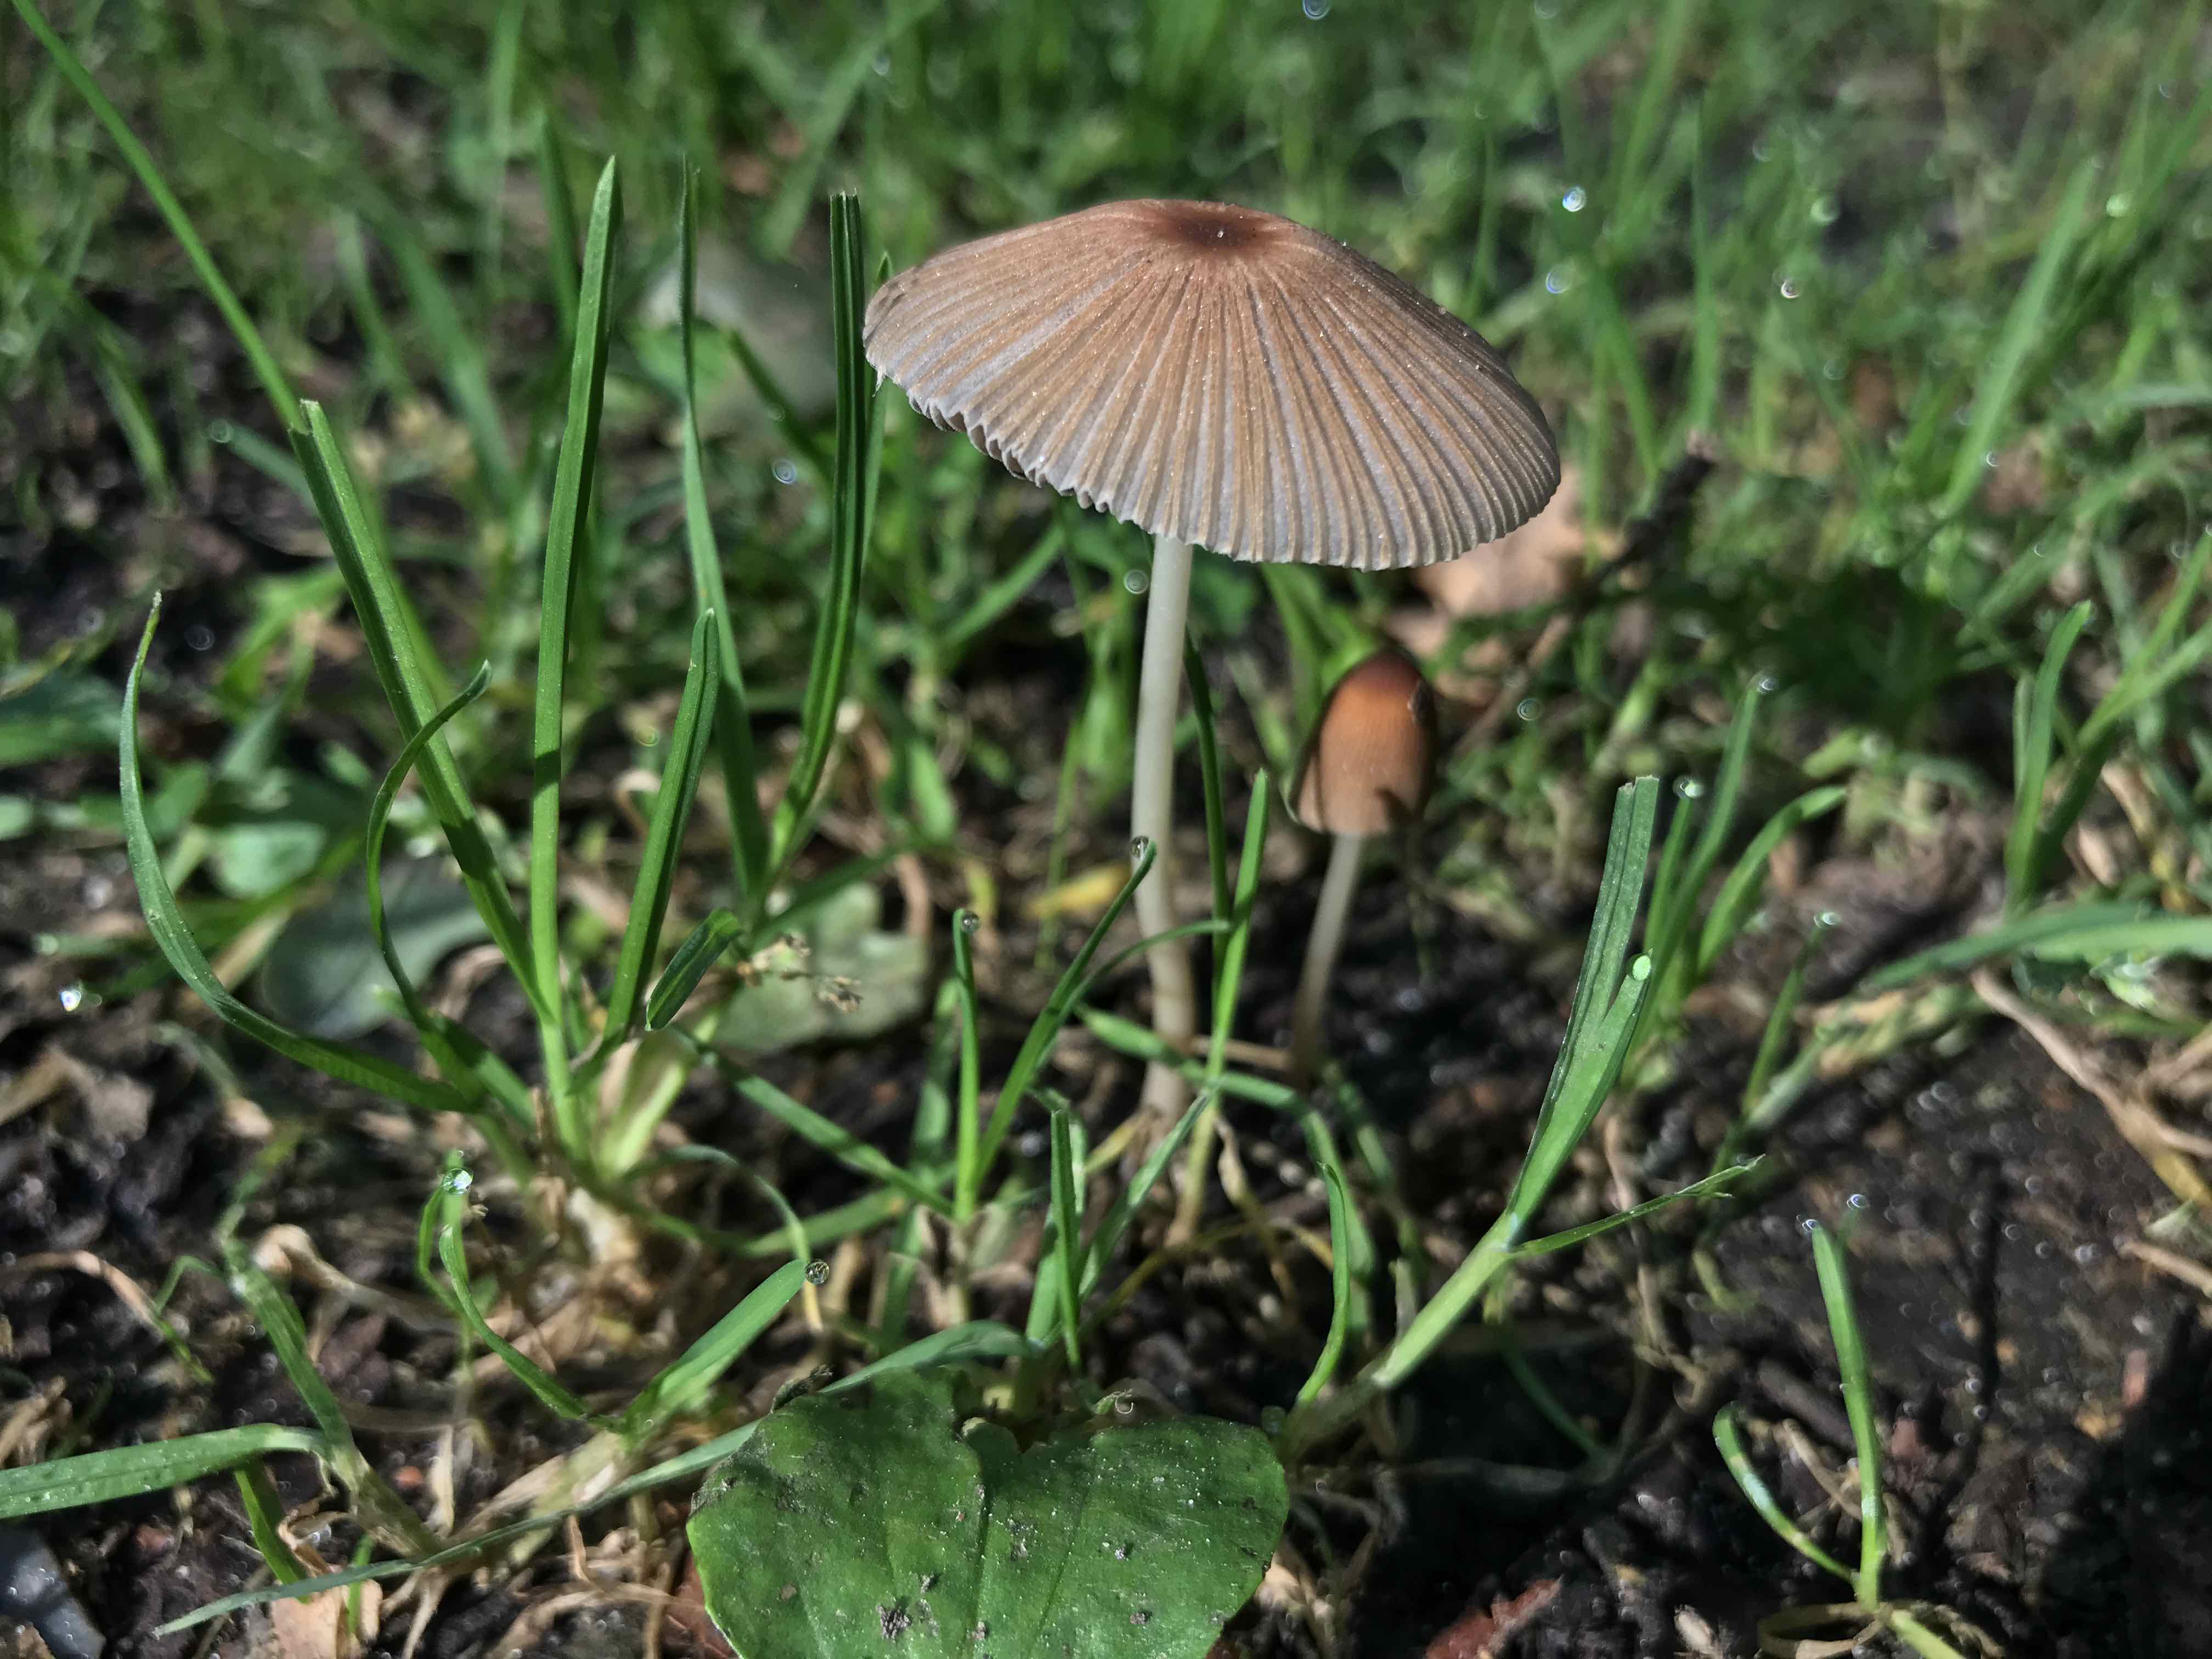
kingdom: Fungi
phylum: Basidiomycota
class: Agaricomycetes
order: Agaricales
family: Psathyrellaceae
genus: Parasola
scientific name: Parasola auricoma
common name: hansens hjulhat
